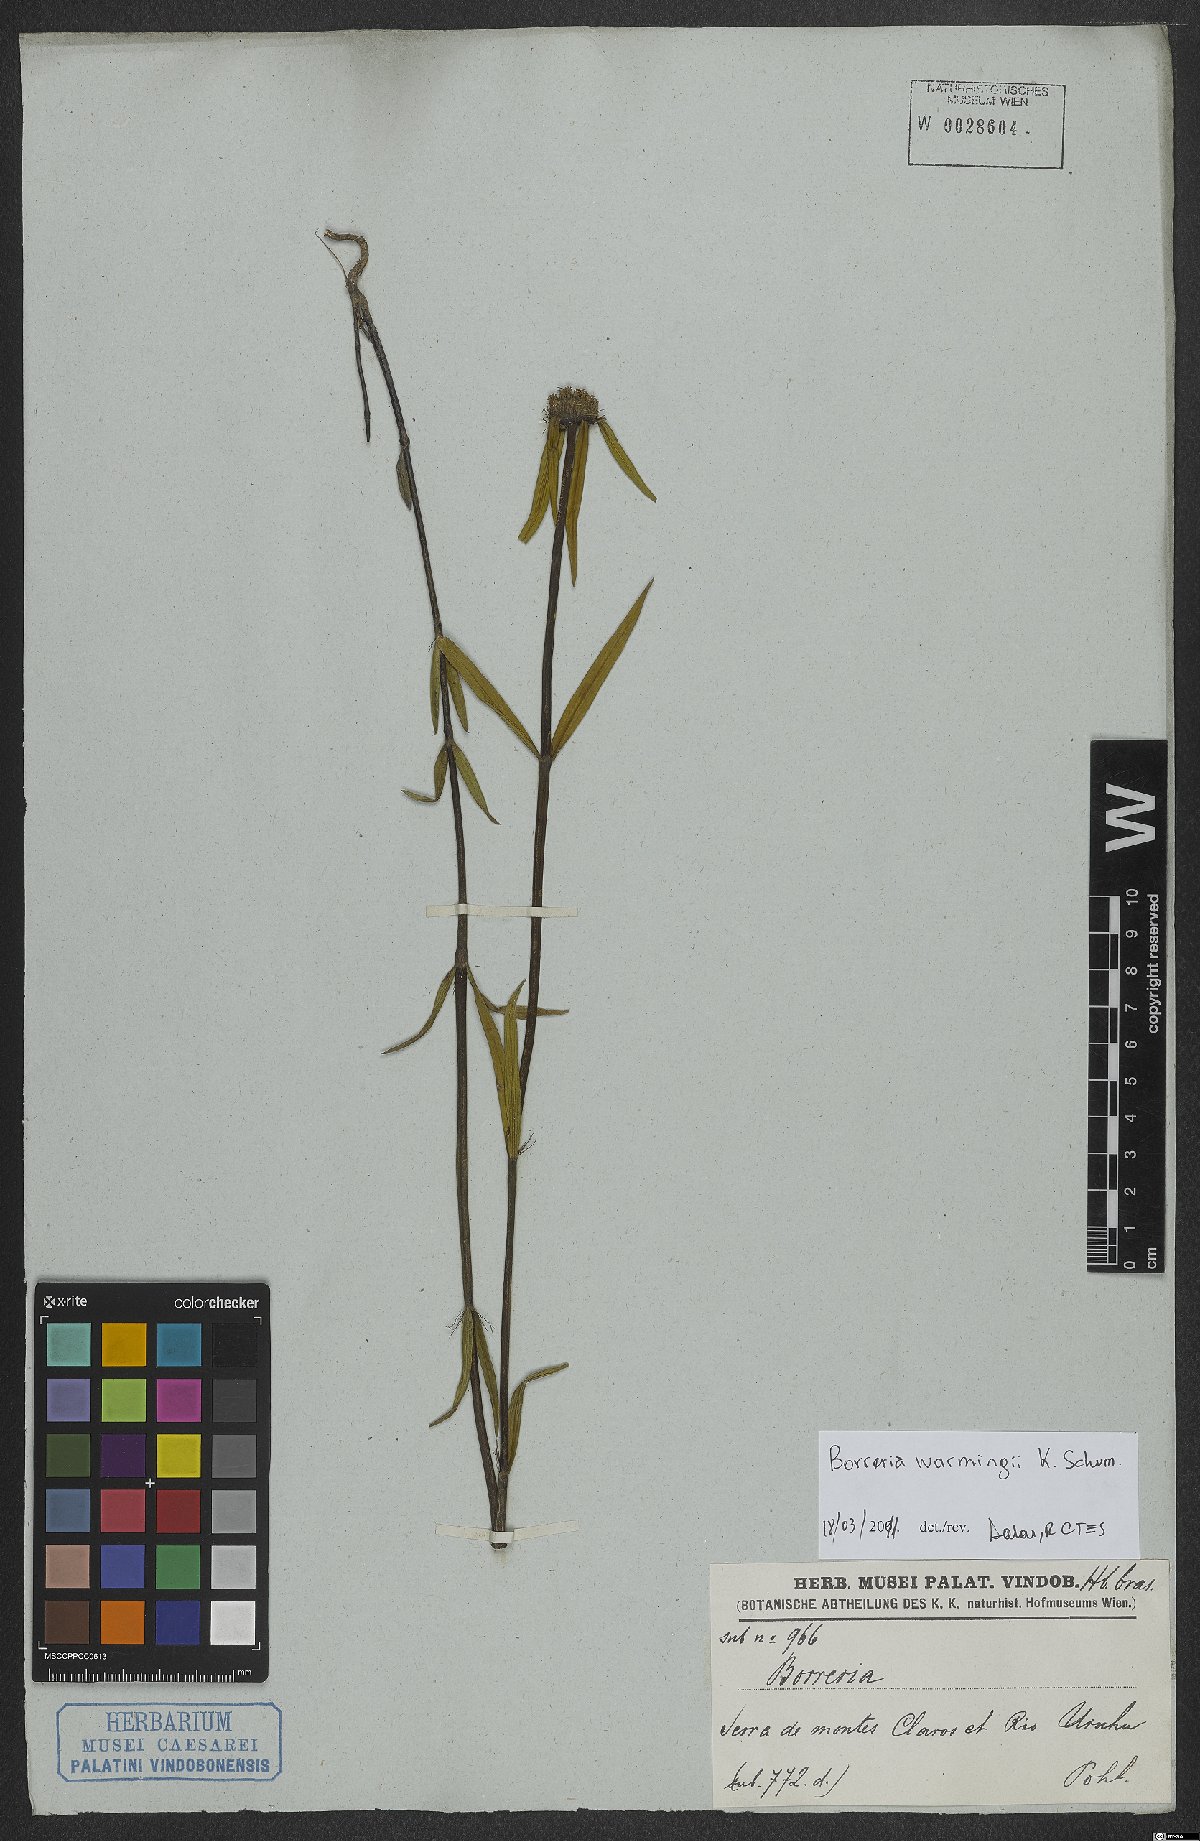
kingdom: Plantae
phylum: Tracheophyta
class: Magnoliopsida
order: Gentianales
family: Rubiaceae
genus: Spermacoce
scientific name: Spermacoce warmingii
